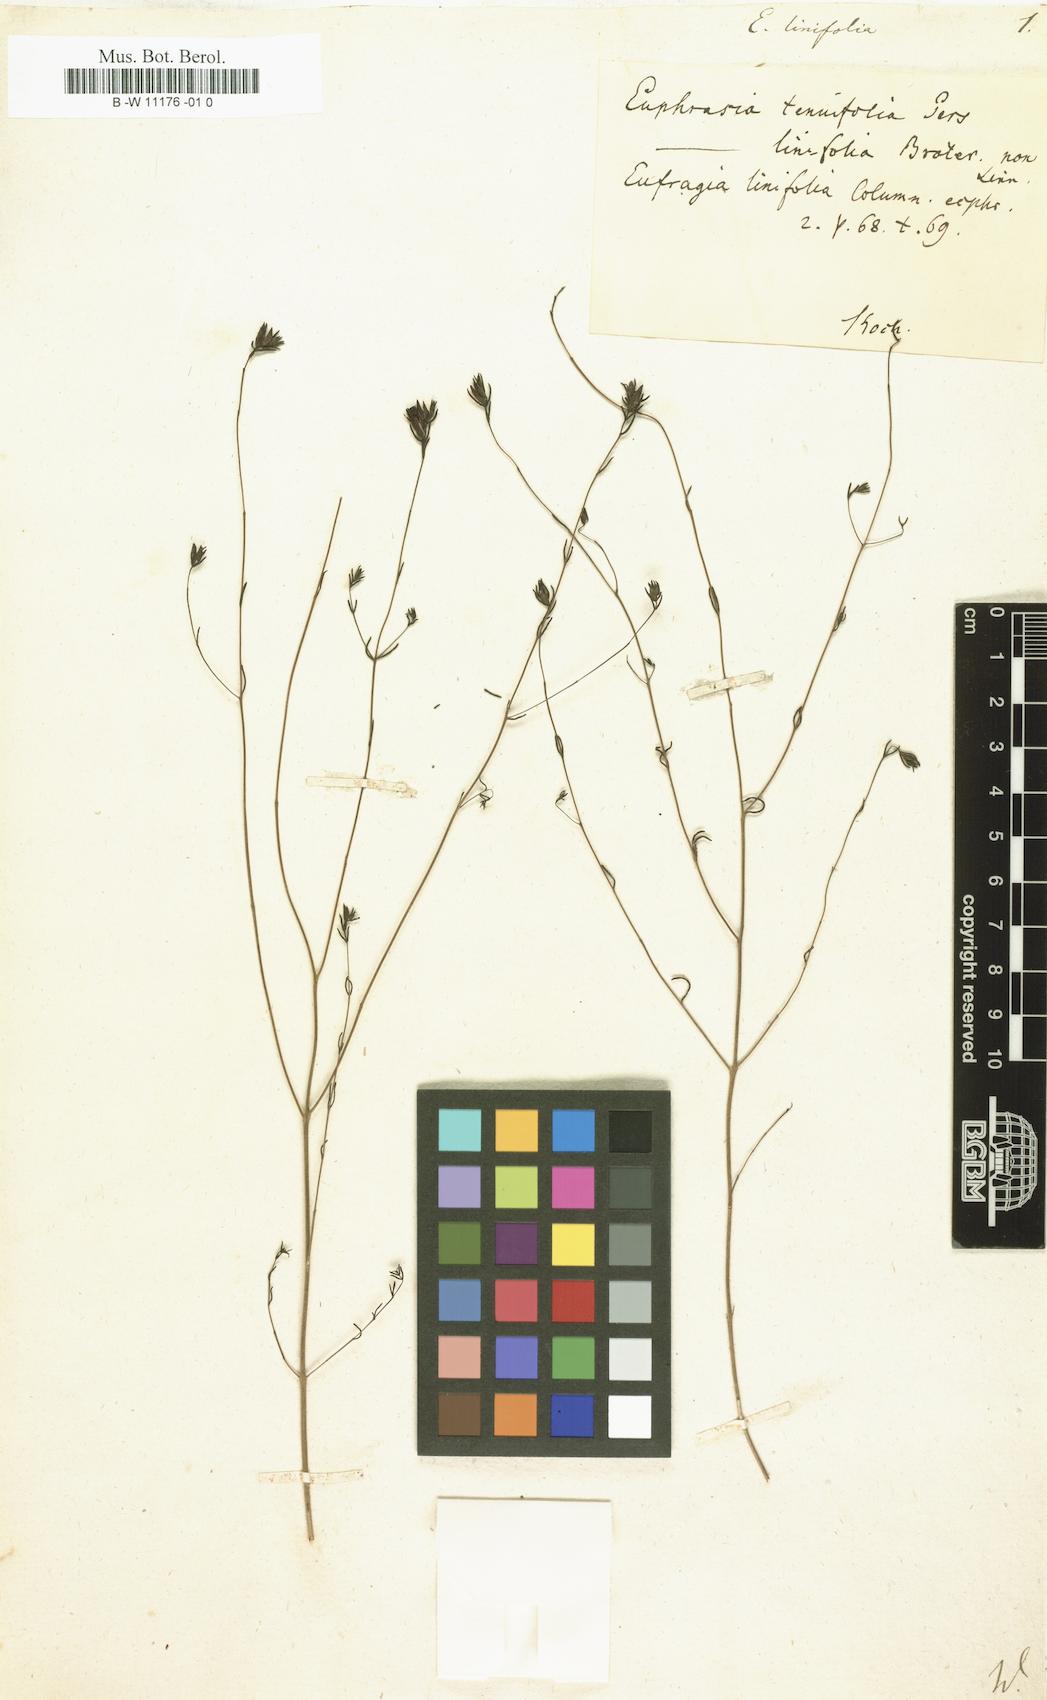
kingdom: Plantae
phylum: Tracheophyta
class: Magnoliopsida
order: Lamiales
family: Orobanchaceae
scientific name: Orobanchaceae
